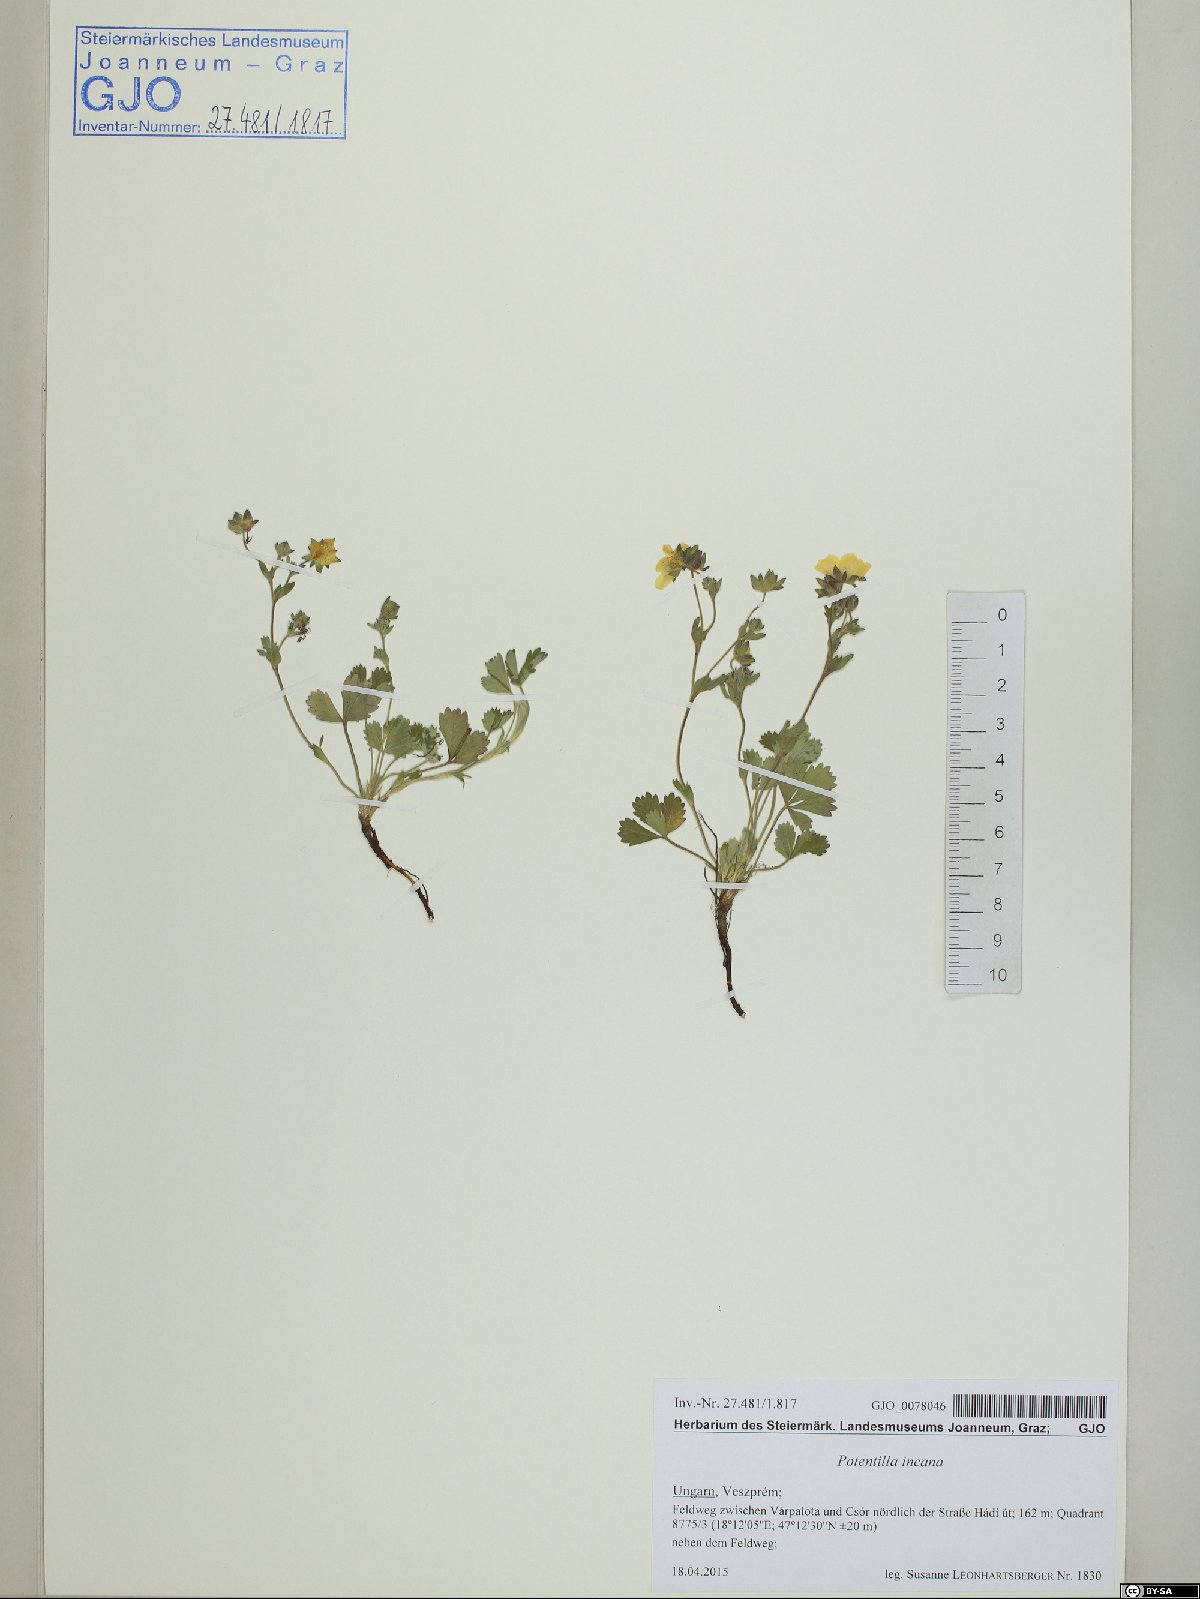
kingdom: Plantae
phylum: Tracheophyta
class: Magnoliopsida
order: Rosales
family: Rosaceae
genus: Potentilla
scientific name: Potentilla cinerea
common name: Ashy cinquefoil
